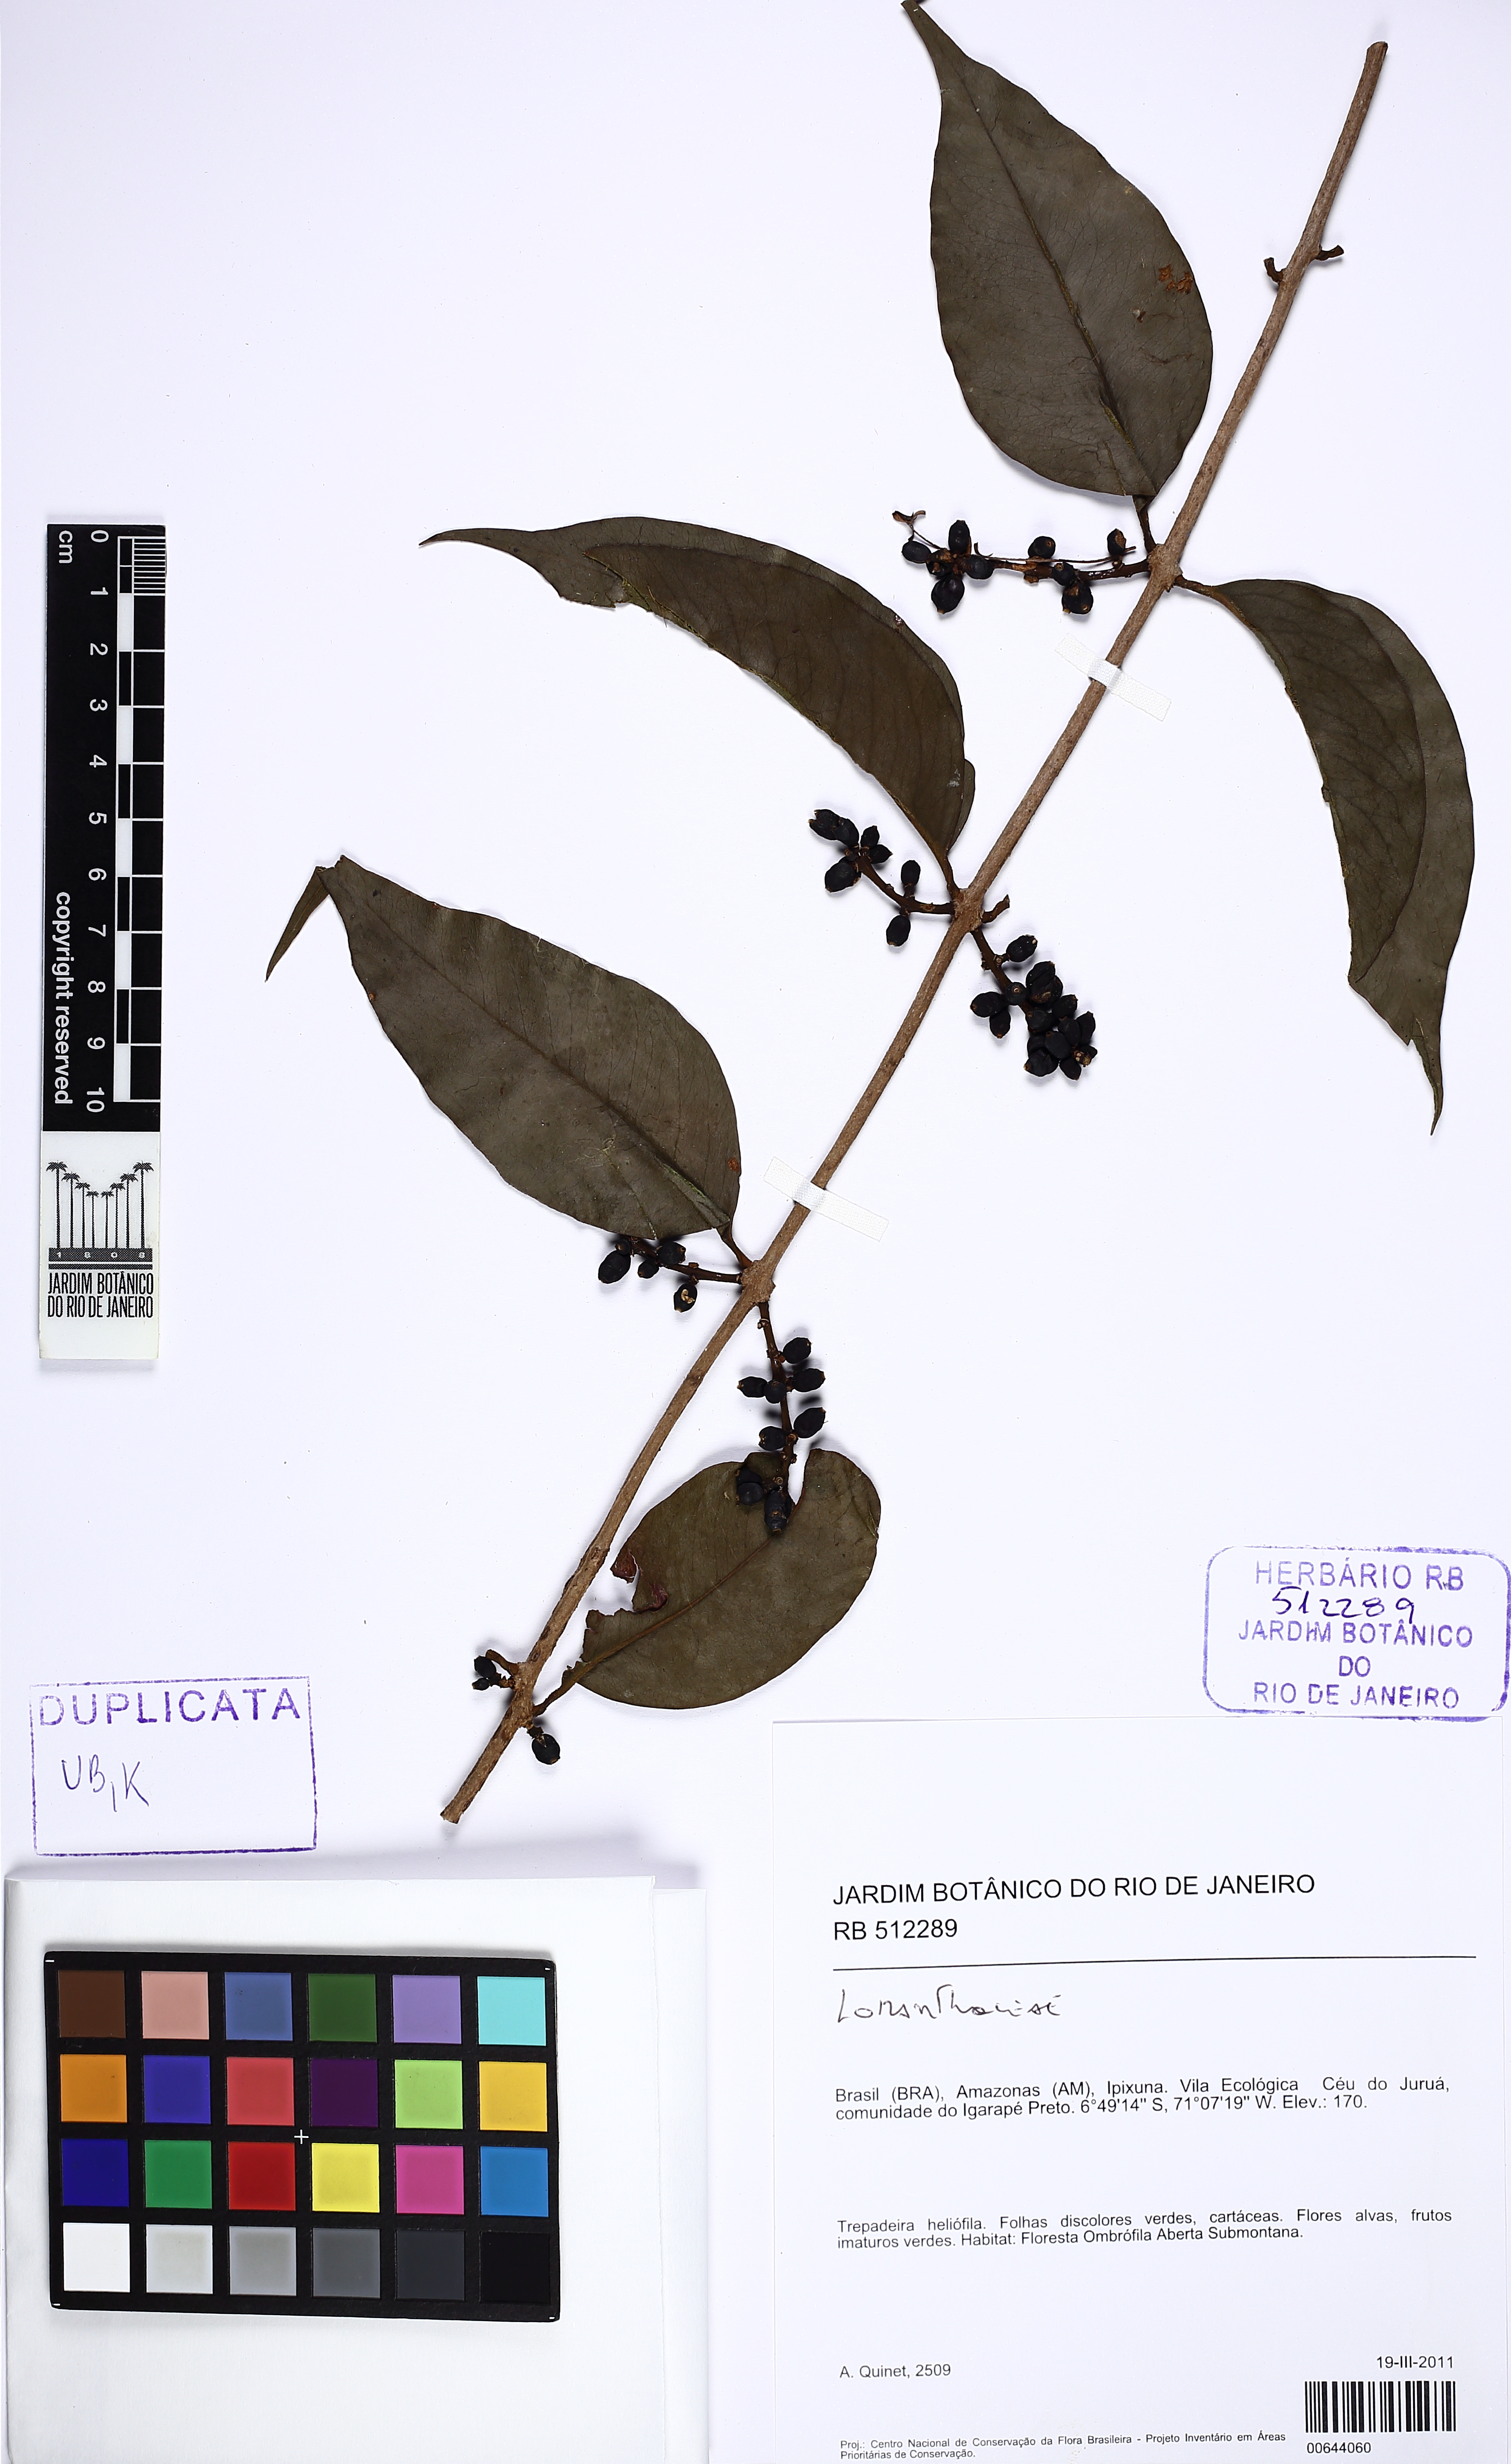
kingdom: Plantae
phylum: Tracheophyta
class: Magnoliopsida
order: Santalales
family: Loranthaceae
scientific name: Loranthaceae
